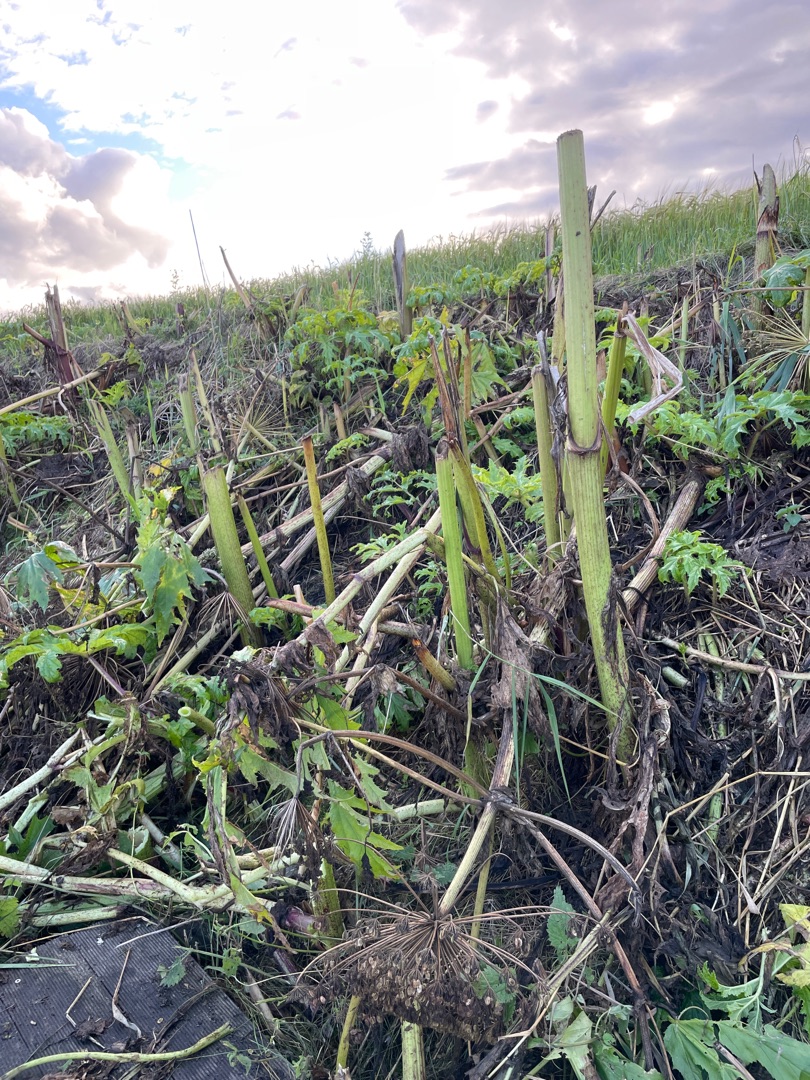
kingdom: Plantae
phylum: Tracheophyta
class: Magnoliopsida
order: Apiales
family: Apiaceae
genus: Heracleum
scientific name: Heracleum mantegazzianum
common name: Kæmpe-bjørneklo
